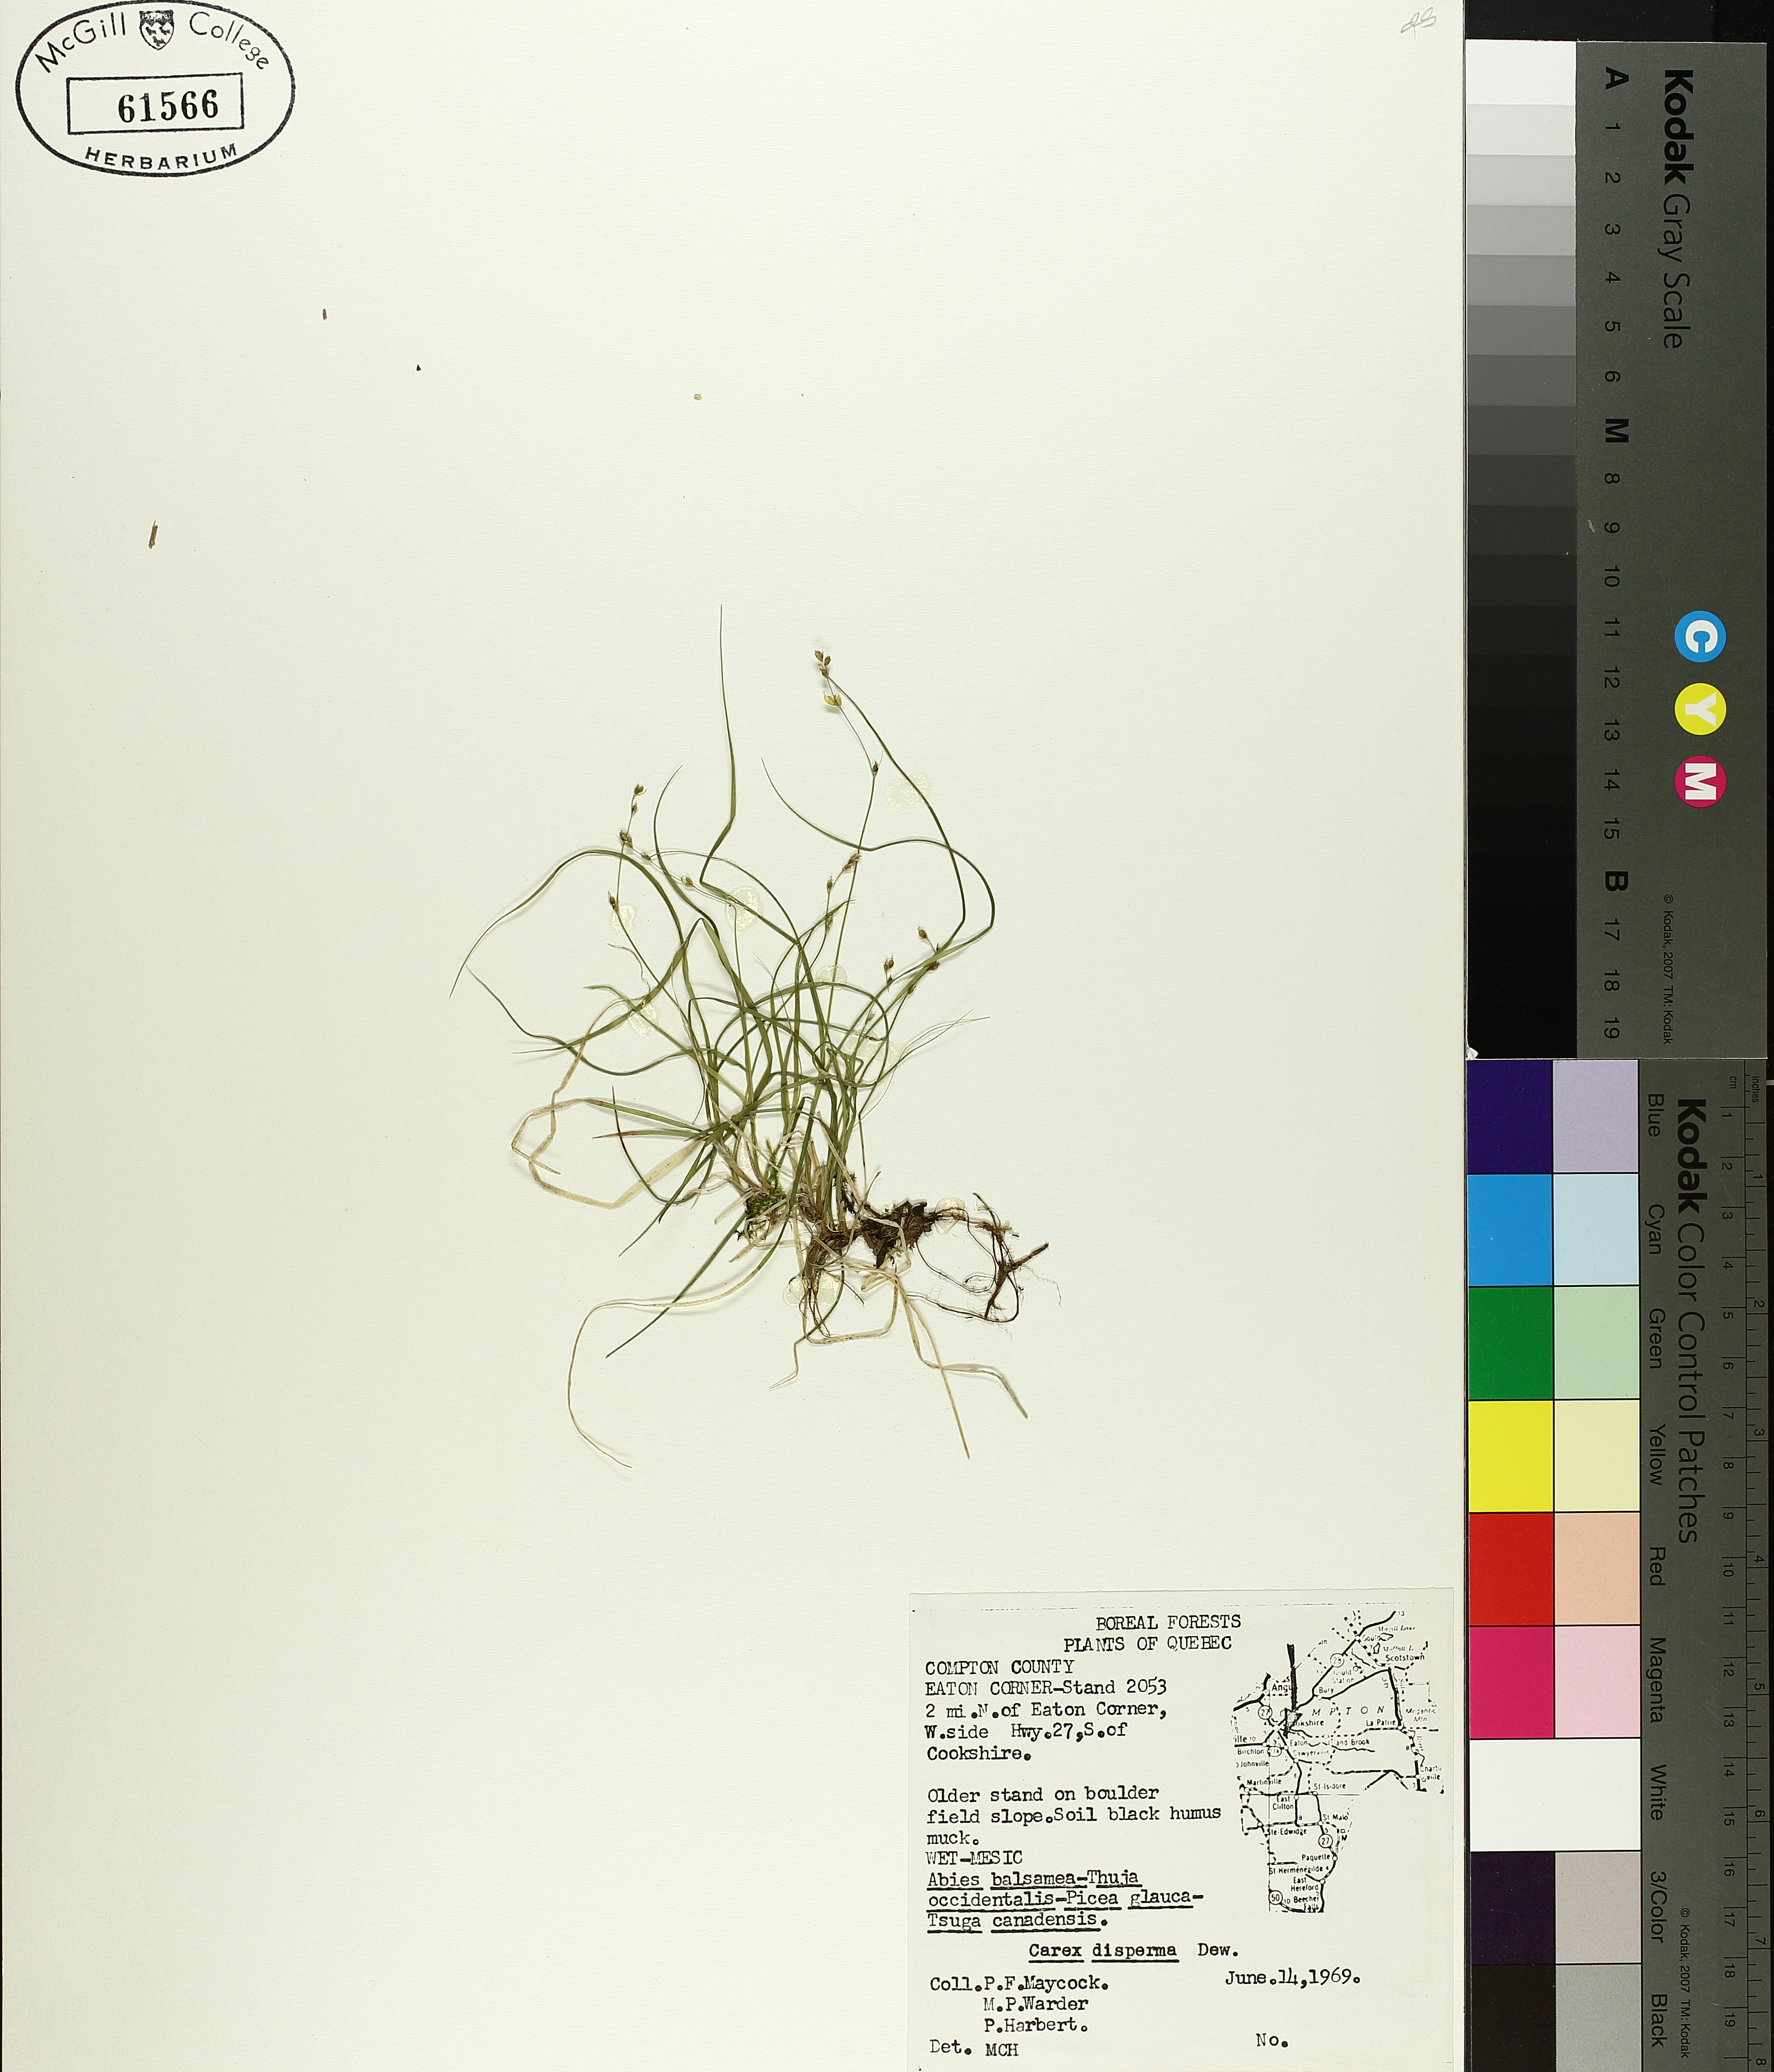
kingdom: Plantae
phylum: Tracheophyta
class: Liliopsida
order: Poales
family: Cyperaceae
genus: Carex
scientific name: Carex disperma
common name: Short-leaved sedge
